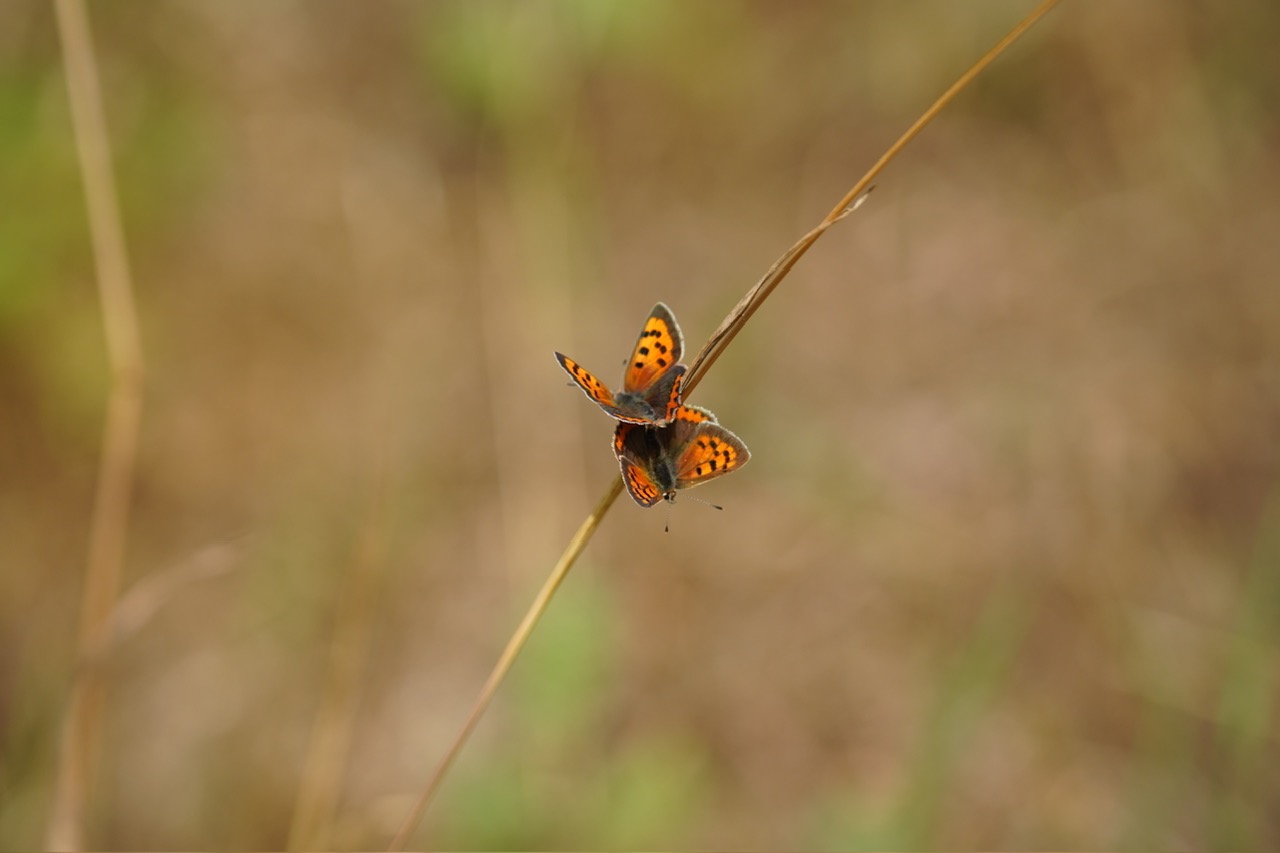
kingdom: Animalia
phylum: Arthropoda
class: Insecta
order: Lepidoptera
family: Lycaenidae
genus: Lycaena
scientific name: Lycaena phlaeas
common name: Lille ildfugl
